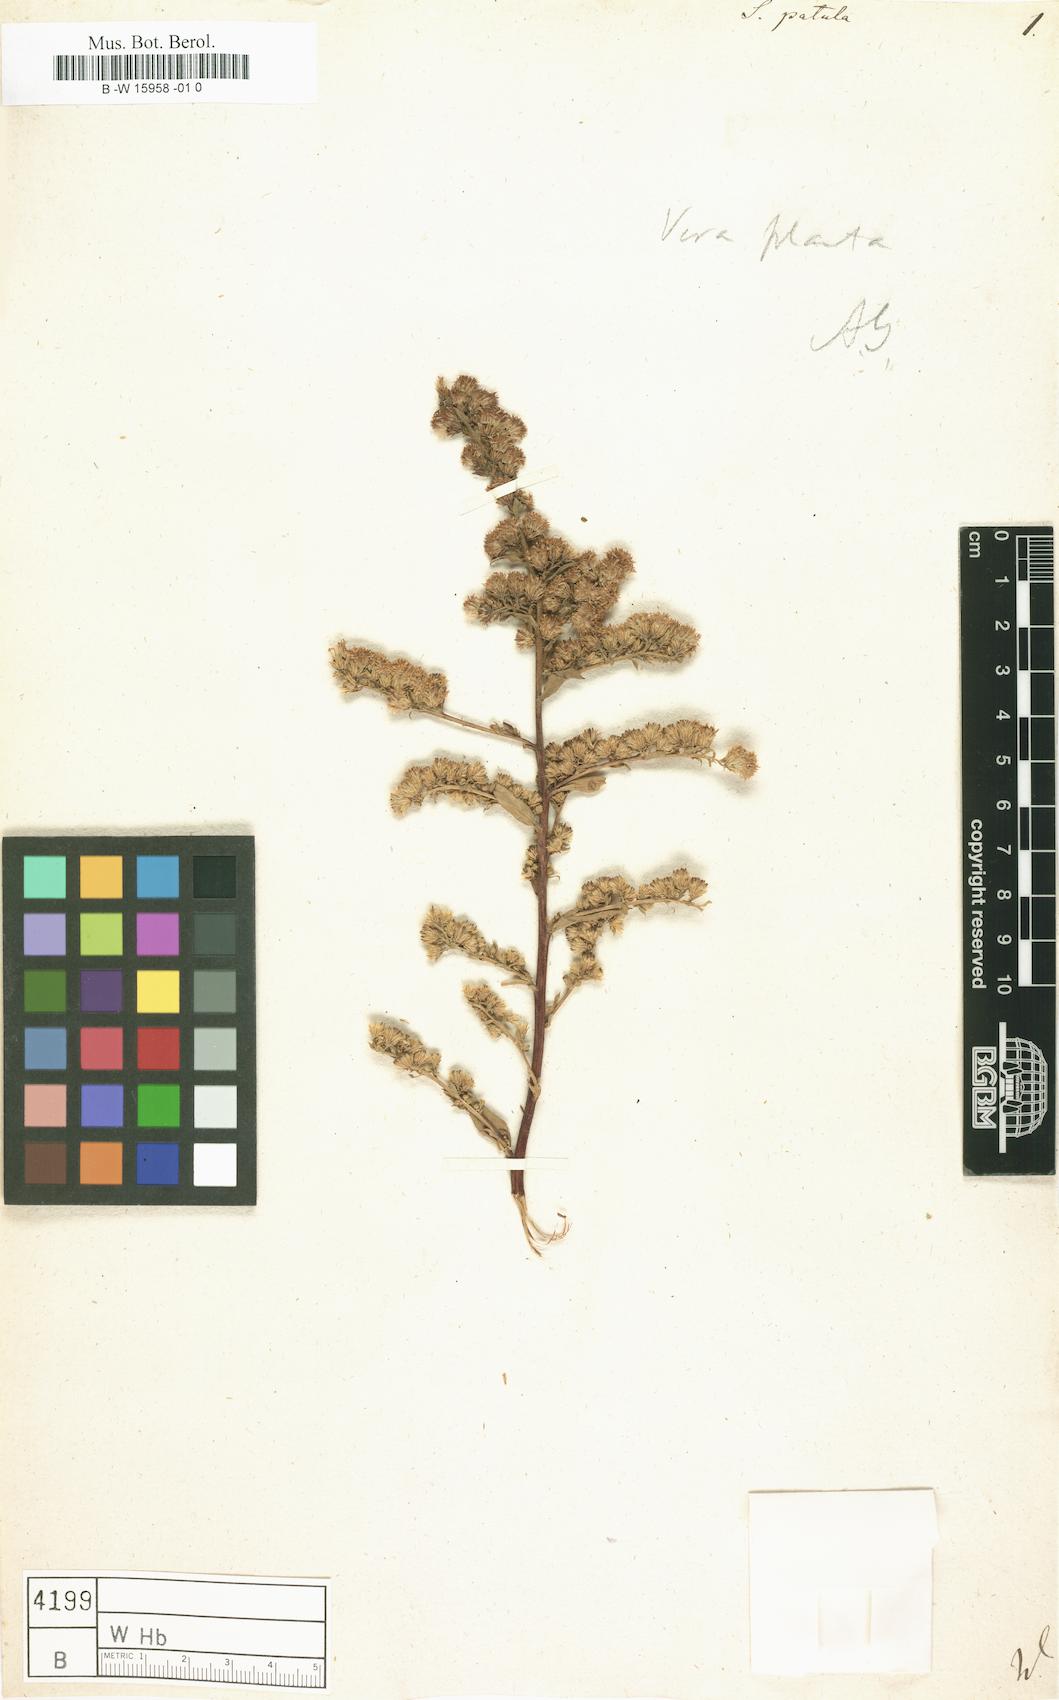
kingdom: Plantae
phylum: Tracheophyta
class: Magnoliopsida
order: Asterales
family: Asteraceae
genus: Solidago
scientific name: Solidago patula
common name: Rough-leaf goldenrod
